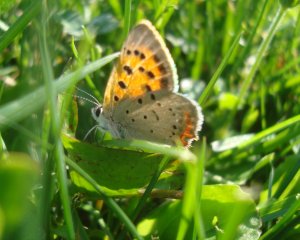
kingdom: Animalia
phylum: Arthropoda
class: Insecta
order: Lepidoptera
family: Lycaenidae
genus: Lycaena
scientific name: Lycaena phlaeas
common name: American Copper
